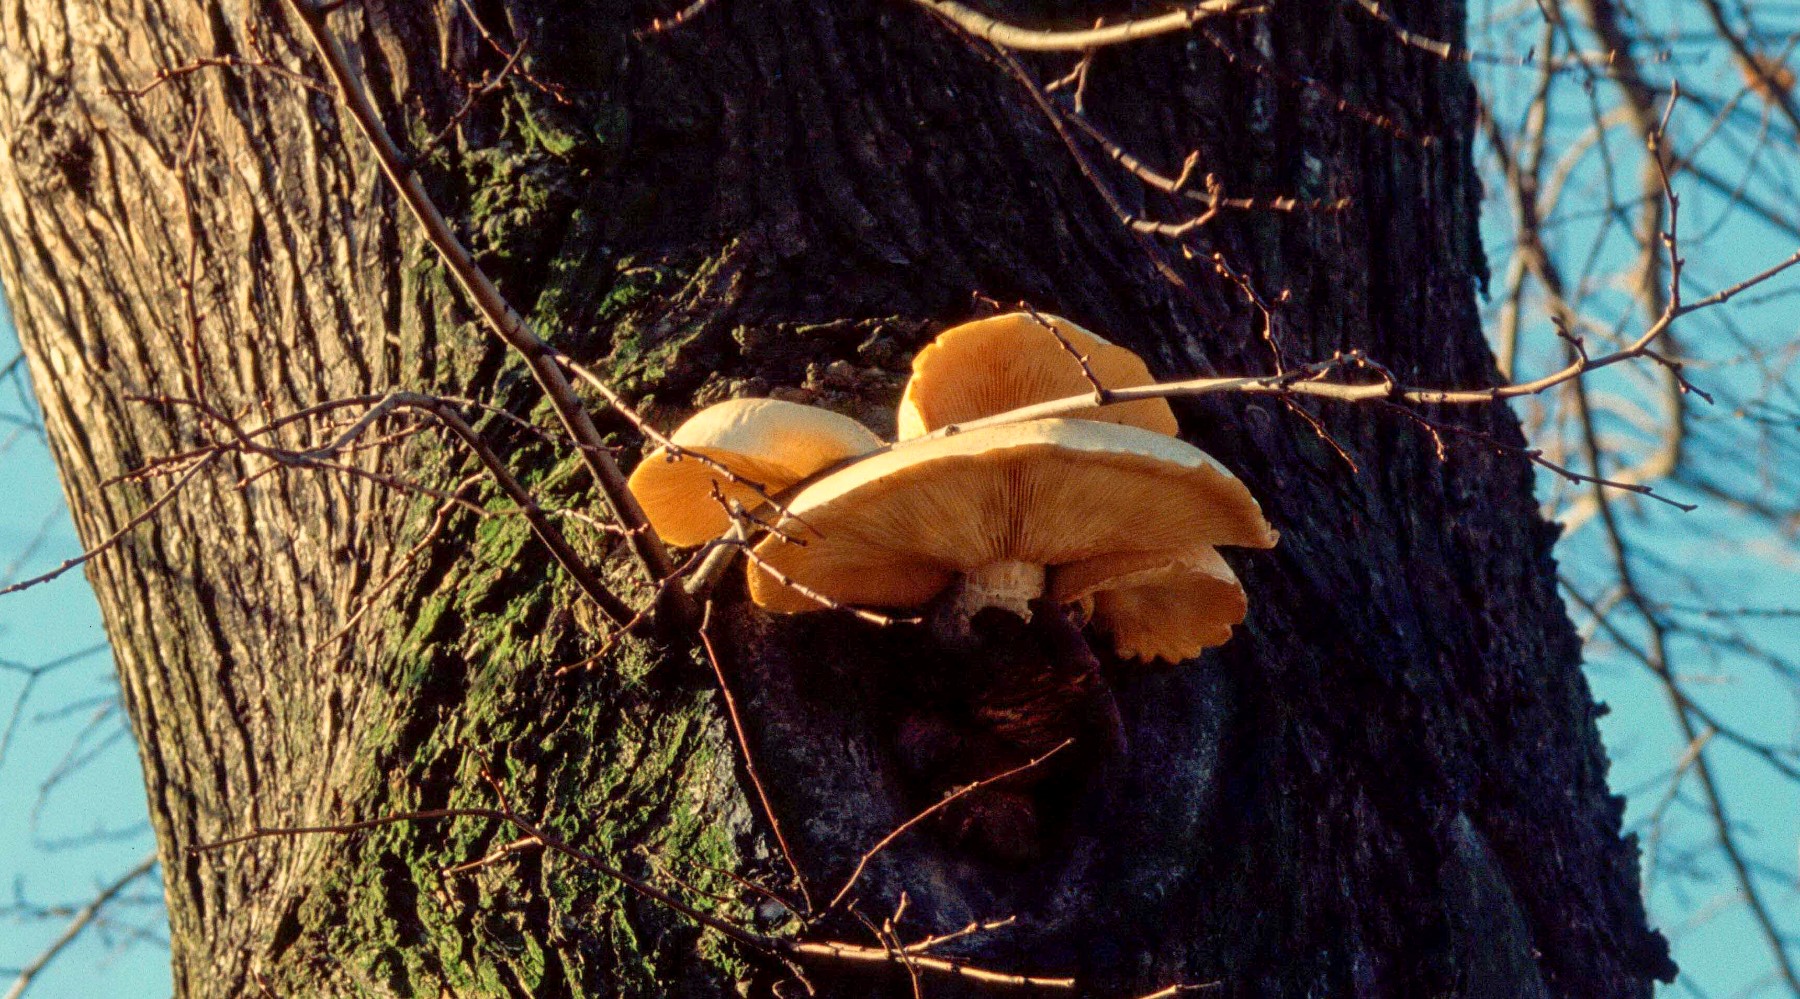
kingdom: Fungi
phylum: Basidiomycota
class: Agaricomycetes
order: Agaricales
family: Lyophyllaceae
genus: Hypsizygus
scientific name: Hypsizygus ulmarius
